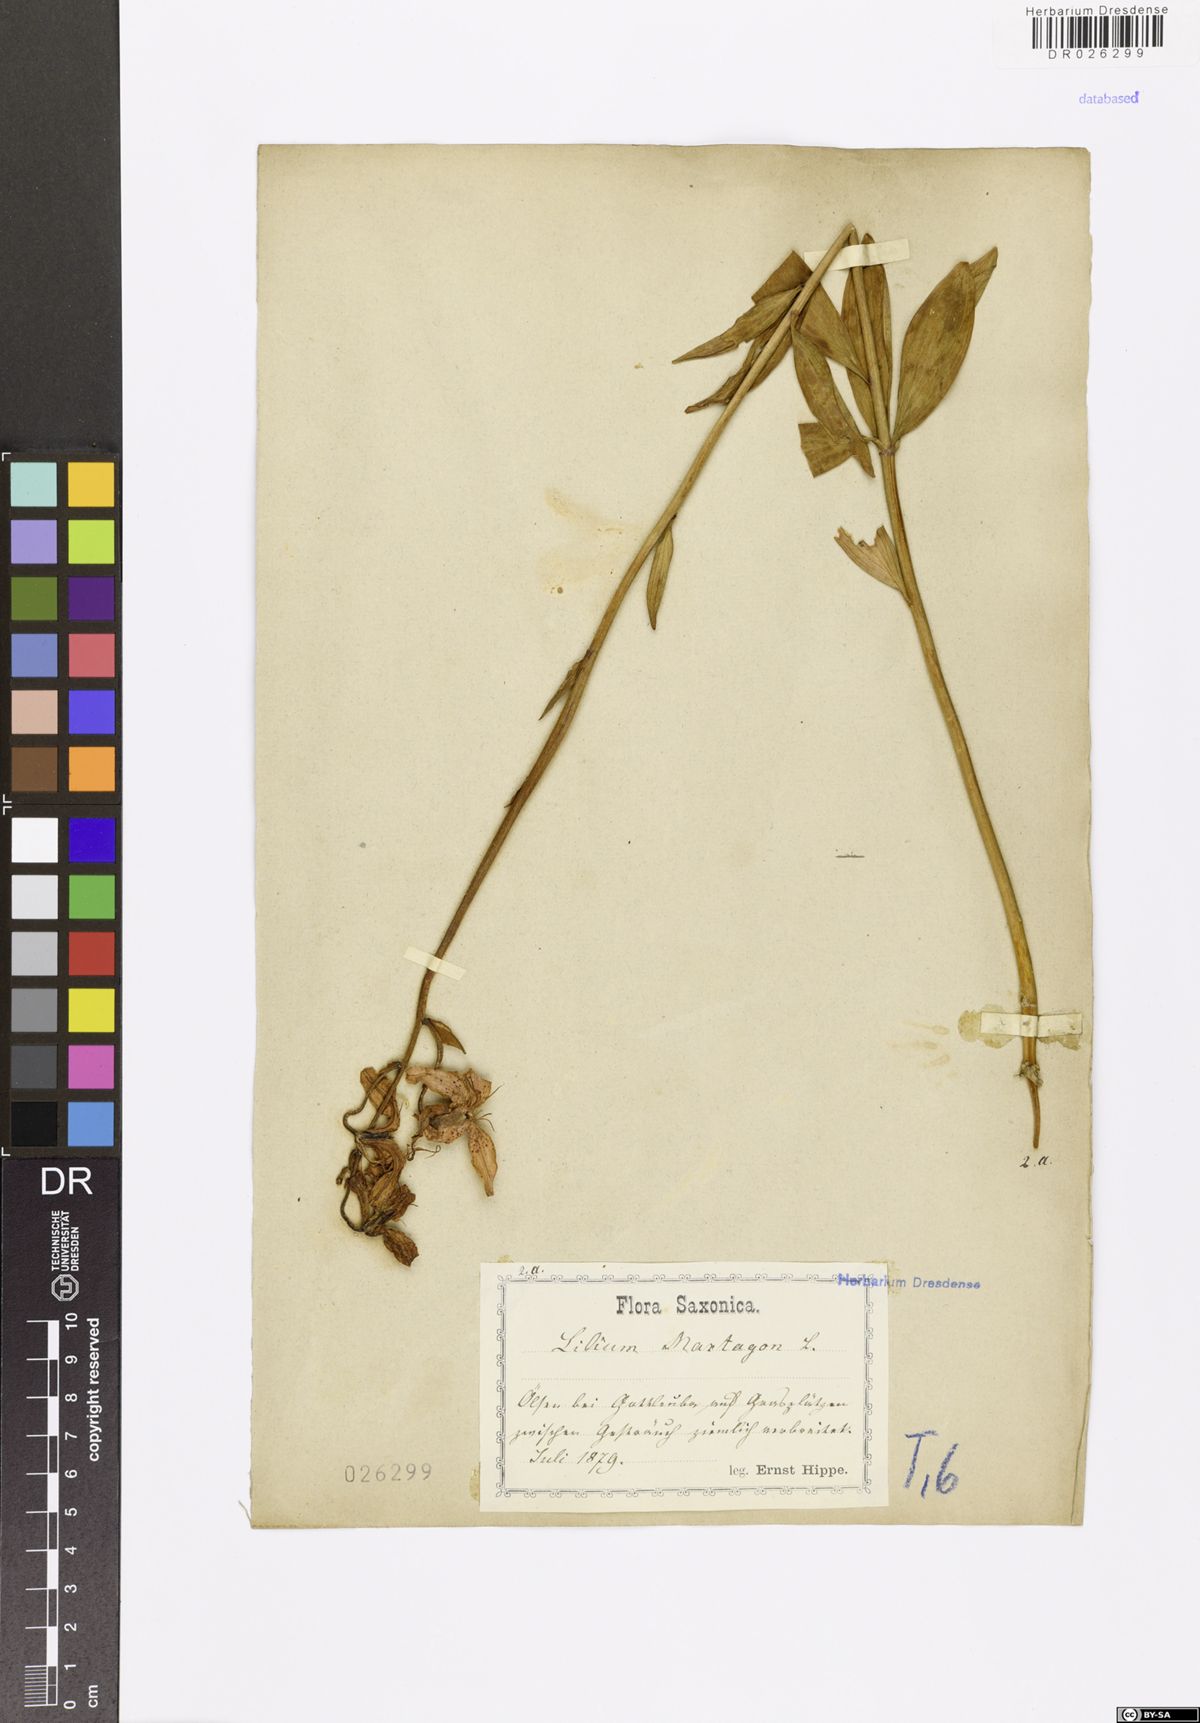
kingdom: Plantae
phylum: Tracheophyta
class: Liliopsida
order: Liliales
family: Liliaceae
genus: Lilium
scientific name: Lilium martagon
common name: Martagon lily
